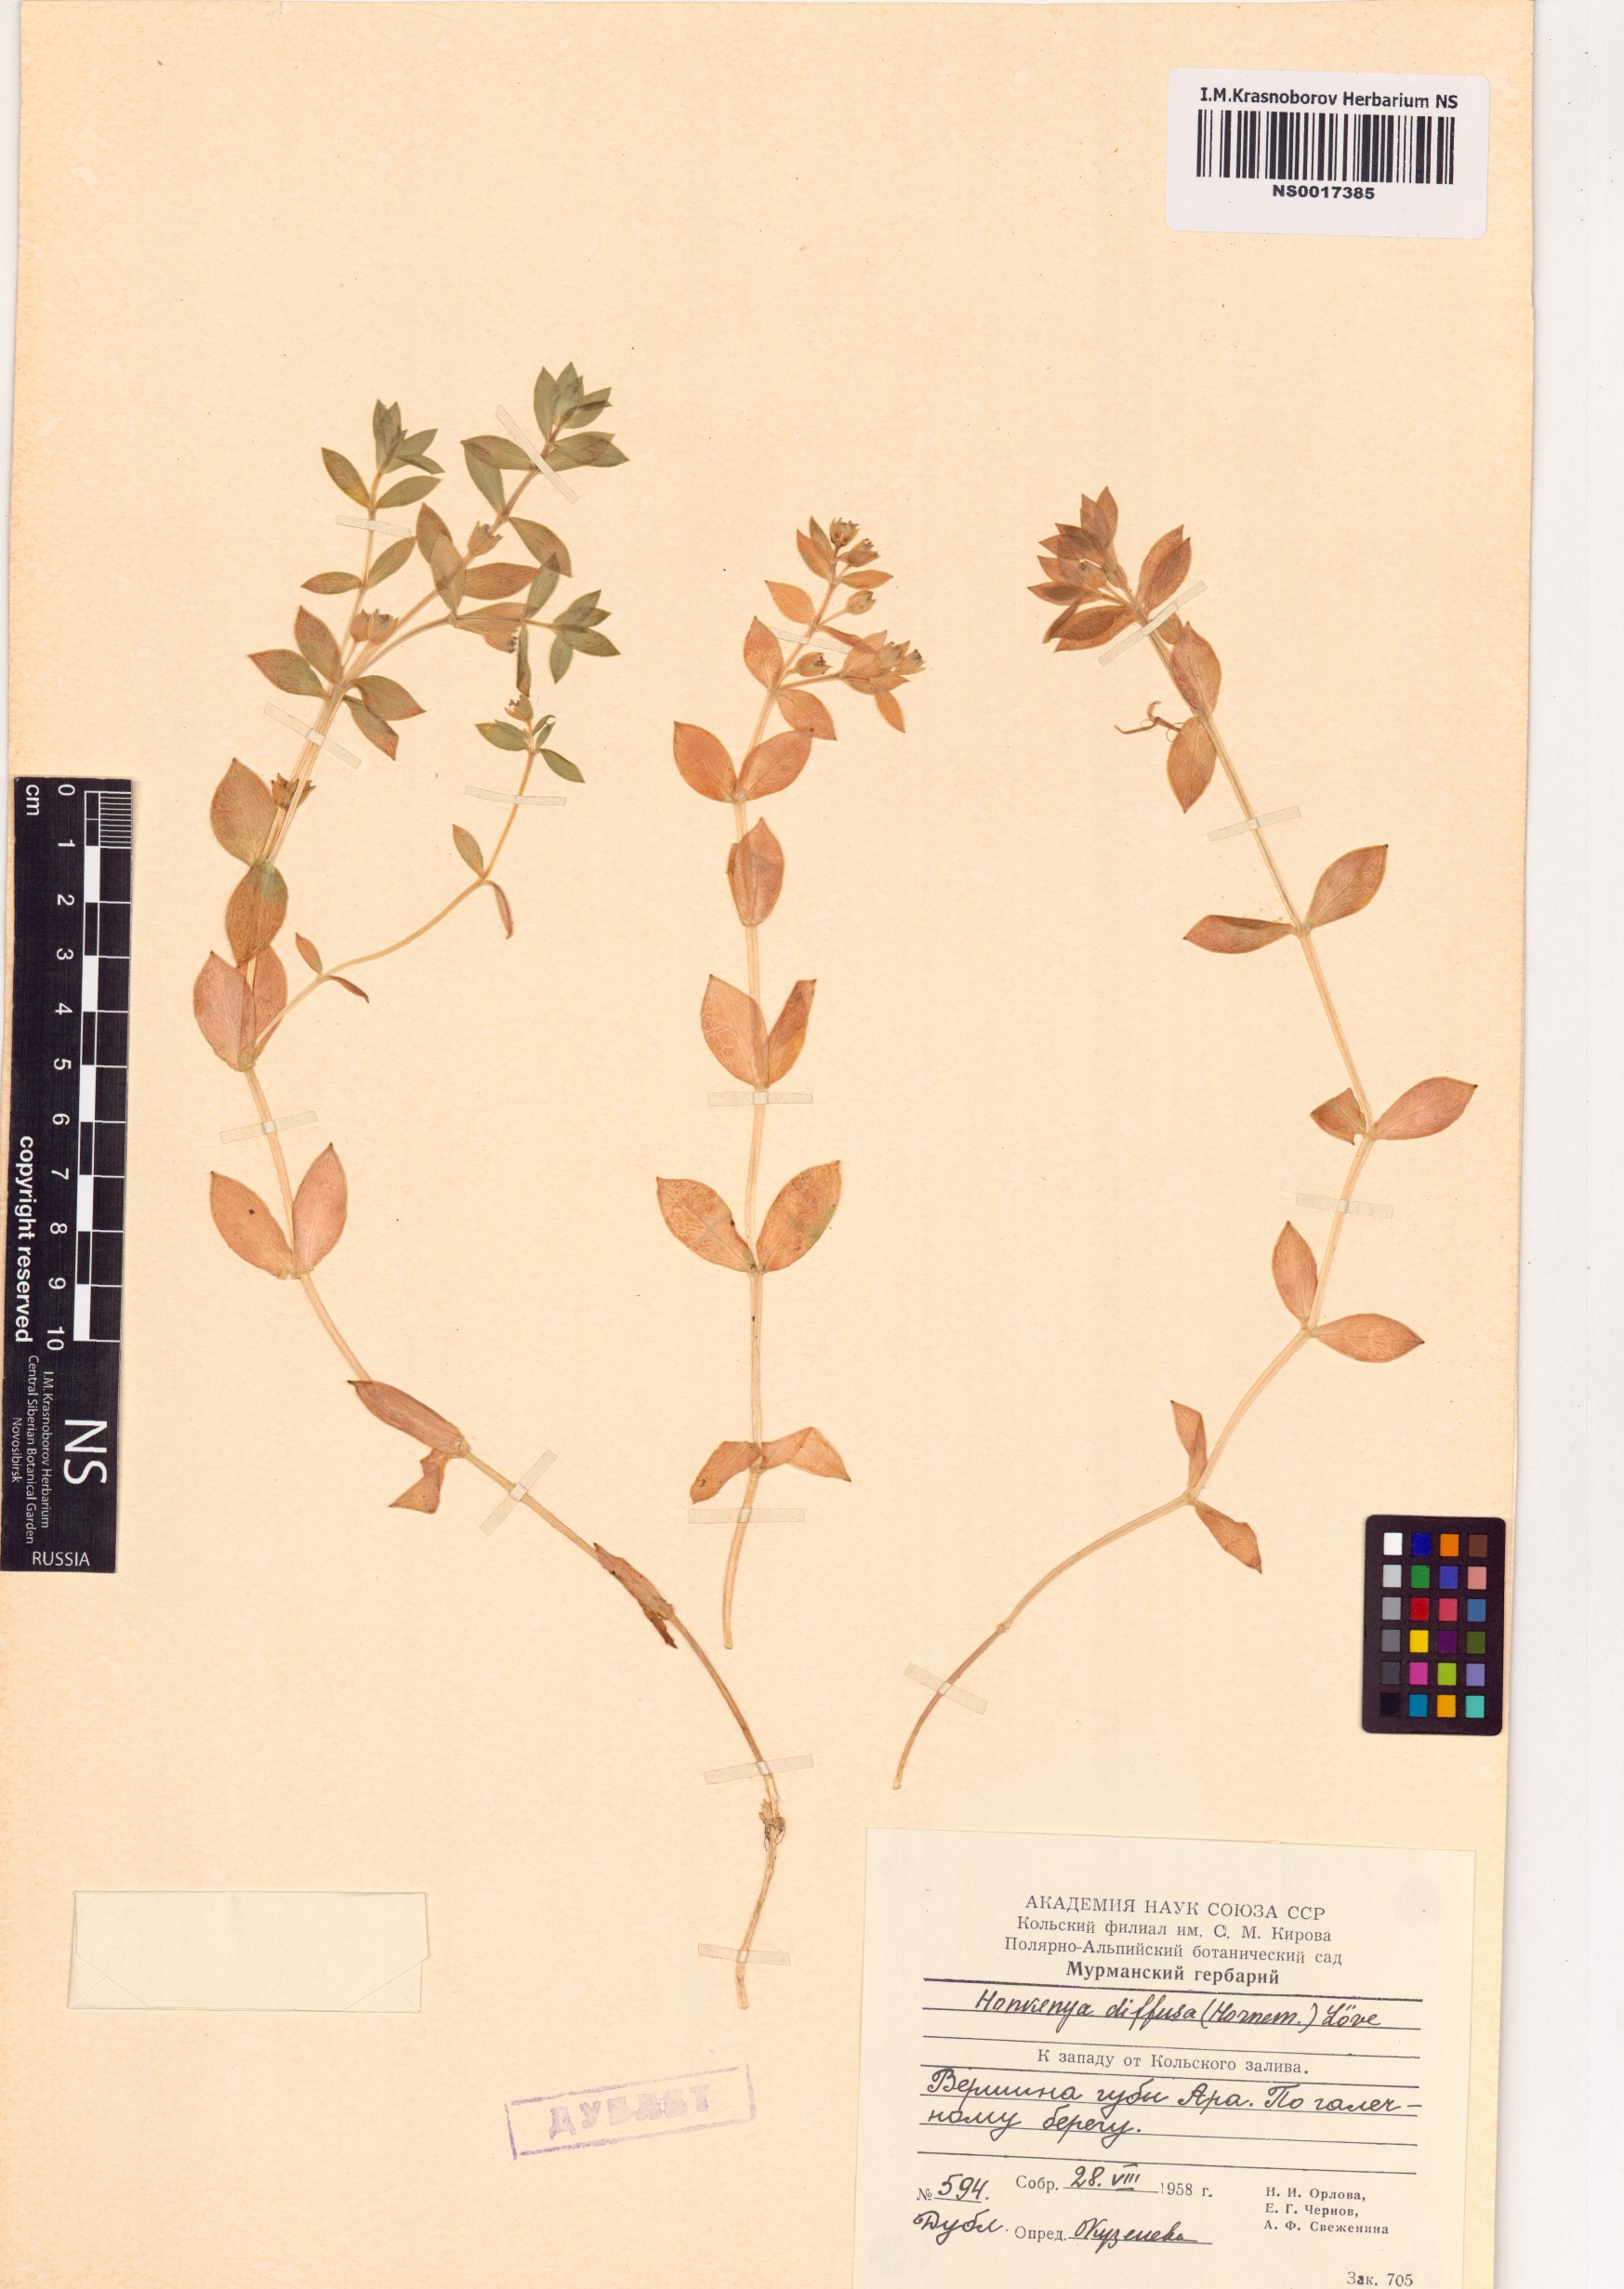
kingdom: Plantae
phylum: Tracheophyta
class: Magnoliopsida
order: Caryophyllales
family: Caryophyllaceae
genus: Honckenya
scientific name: Honckenya peploides
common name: Sea sandwort
